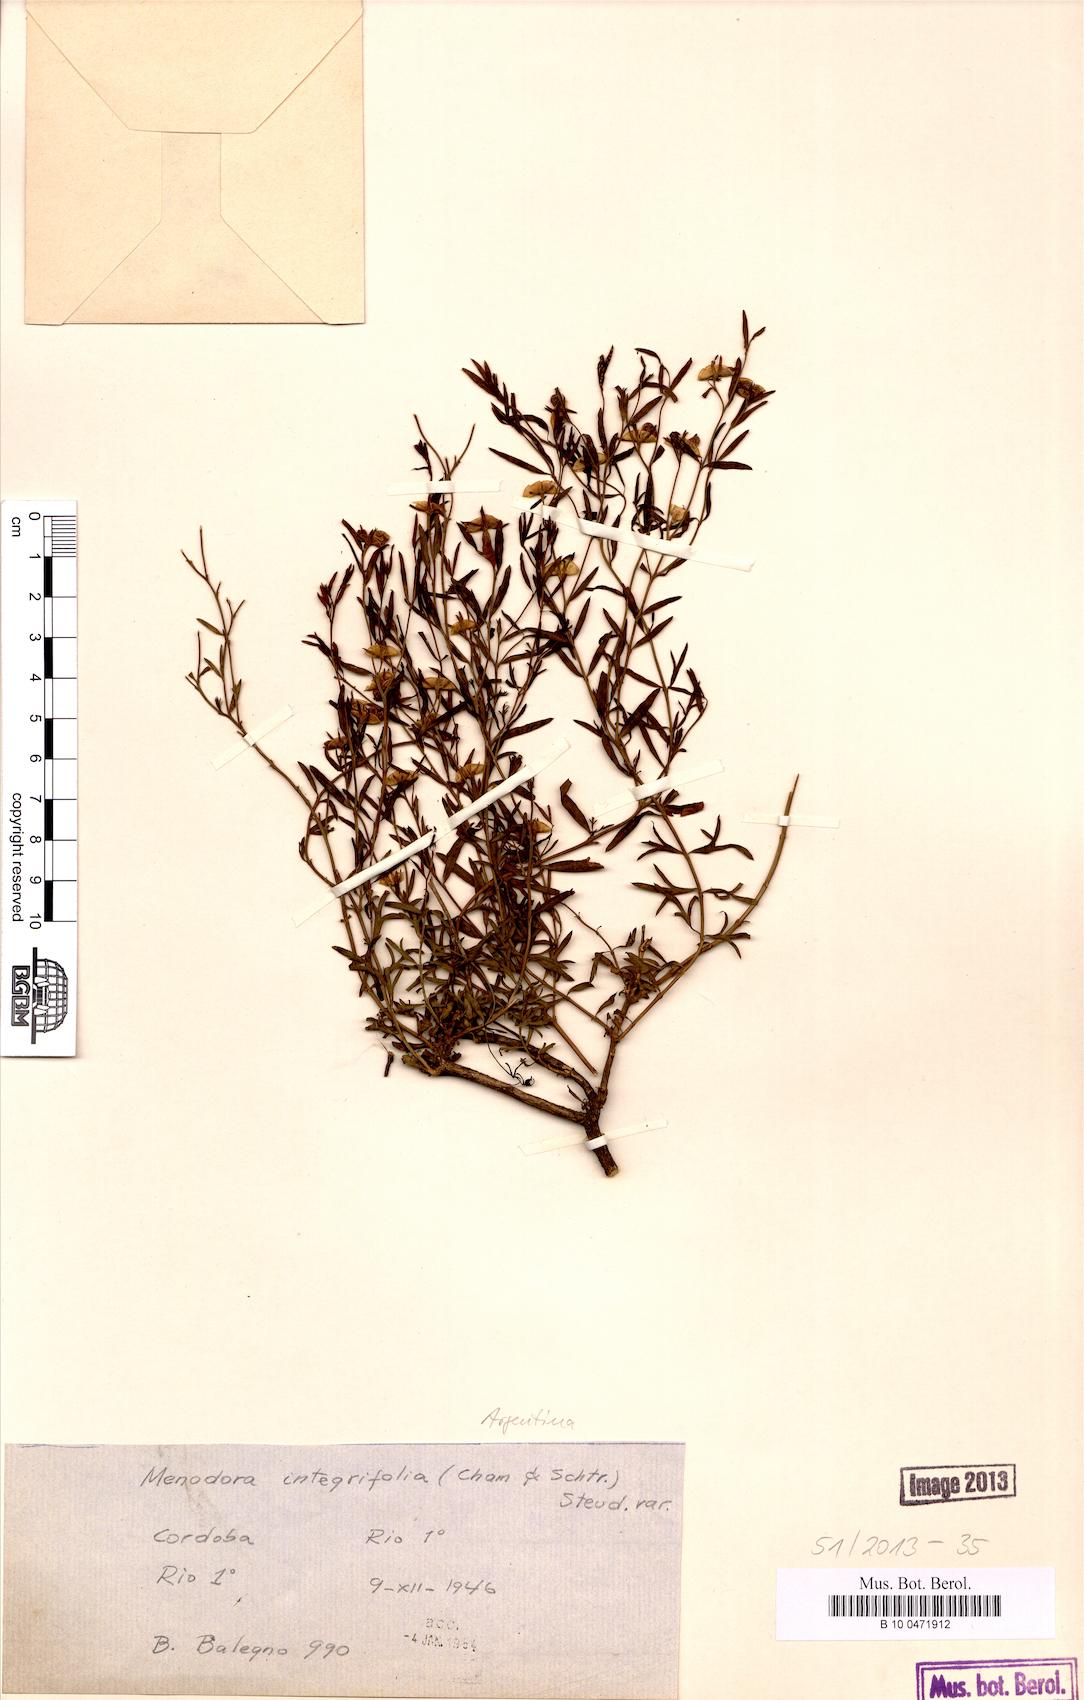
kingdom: Plantae
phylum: Tracheophyta
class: Magnoliopsida
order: Lamiales
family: Oleaceae
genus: Menodora
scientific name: Menodora integrifolia
